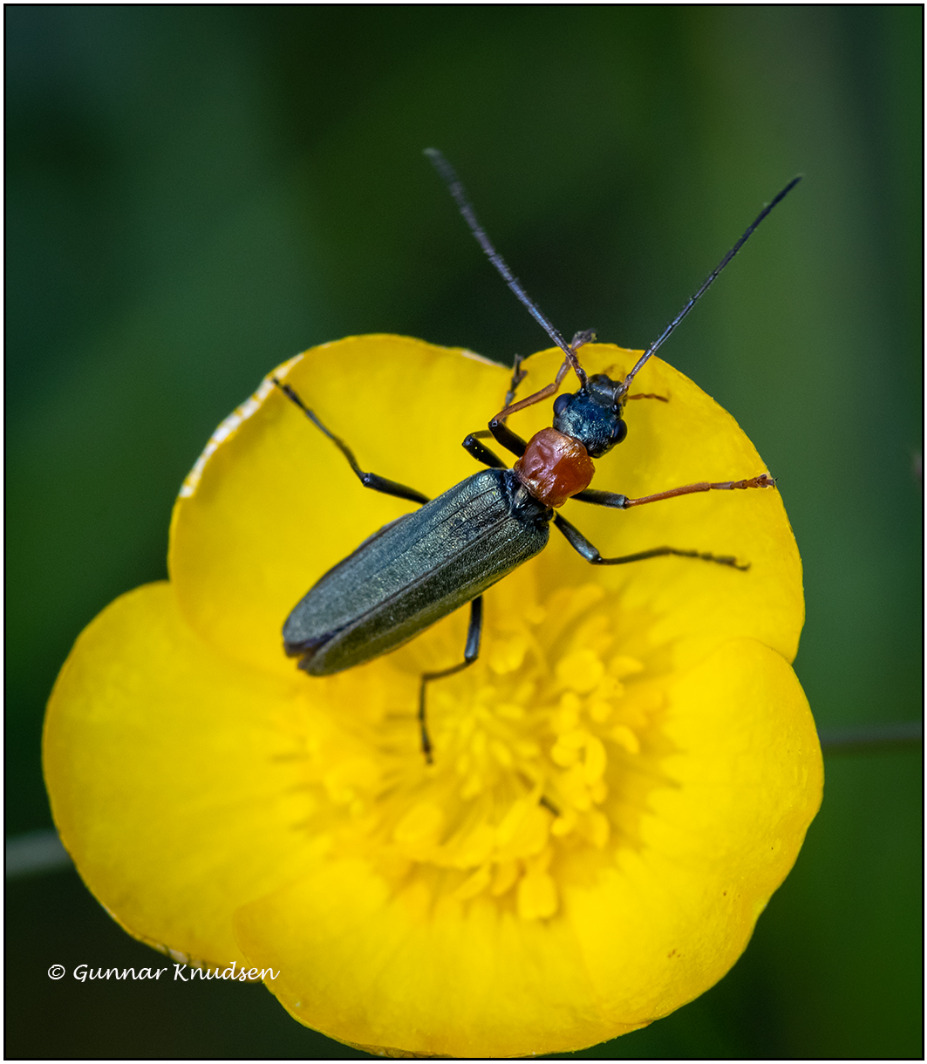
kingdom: Animalia
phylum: Arthropoda
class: Insecta
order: Coleoptera
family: Oedemeridae
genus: Oedemera
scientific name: Oedemera croceicollis
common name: Orangebrystet solbille
